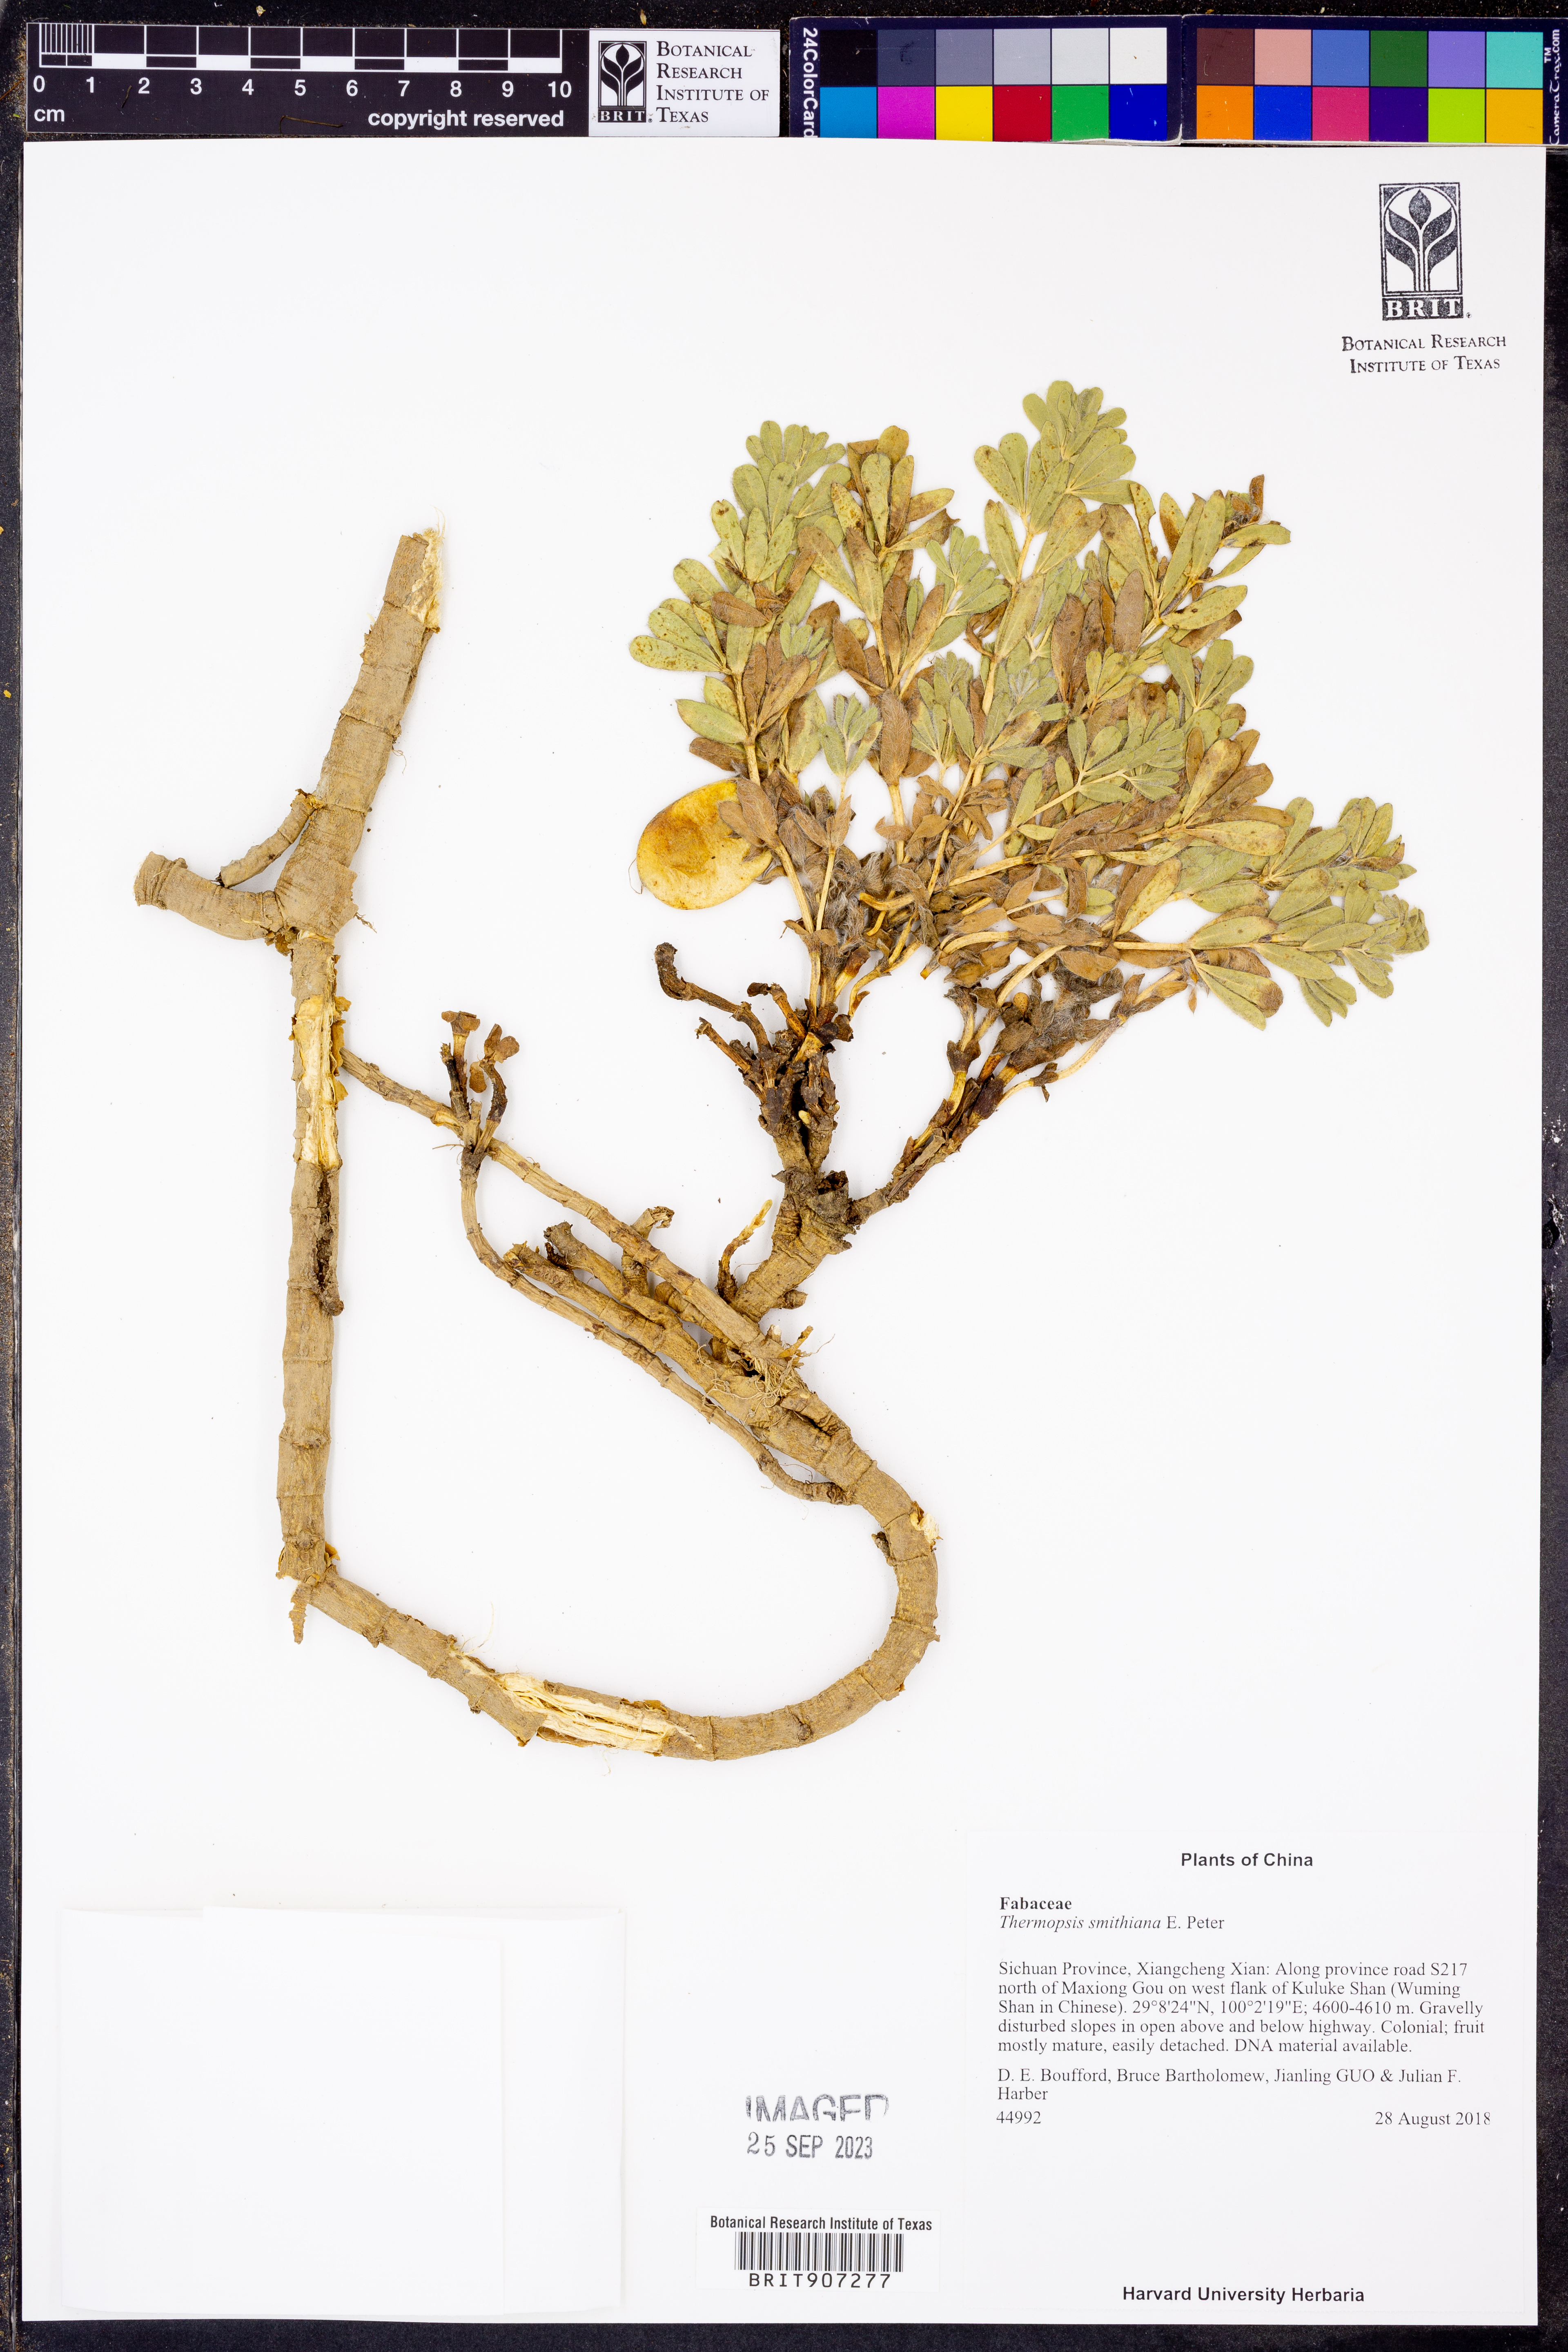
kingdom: Plantae
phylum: Tracheophyta
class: Magnoliopsida
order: Fabales
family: Fabaceae
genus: Thermopsis
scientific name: Thermopsis smithiana
